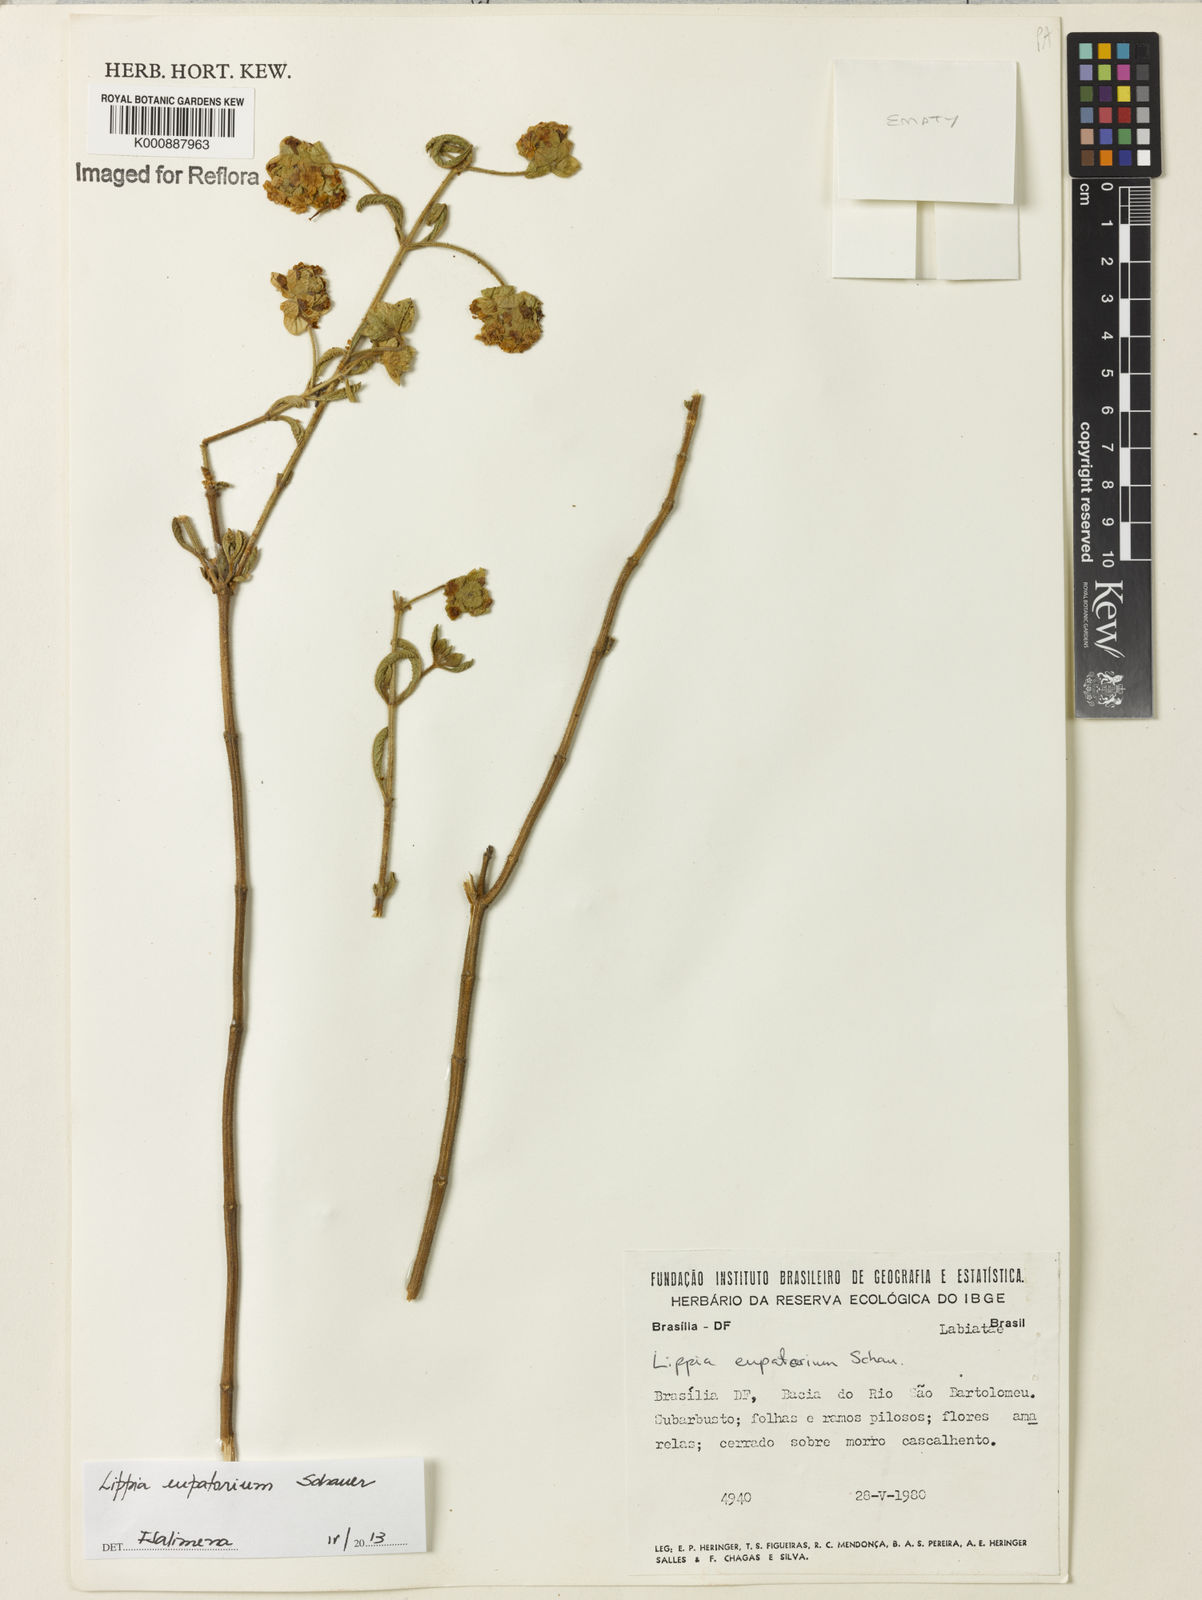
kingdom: Plantae
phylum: Tracheophyta
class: Magnoliopsida
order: Lamiales
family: Verbenaceae
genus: Lippia
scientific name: Lippia eupatorium
